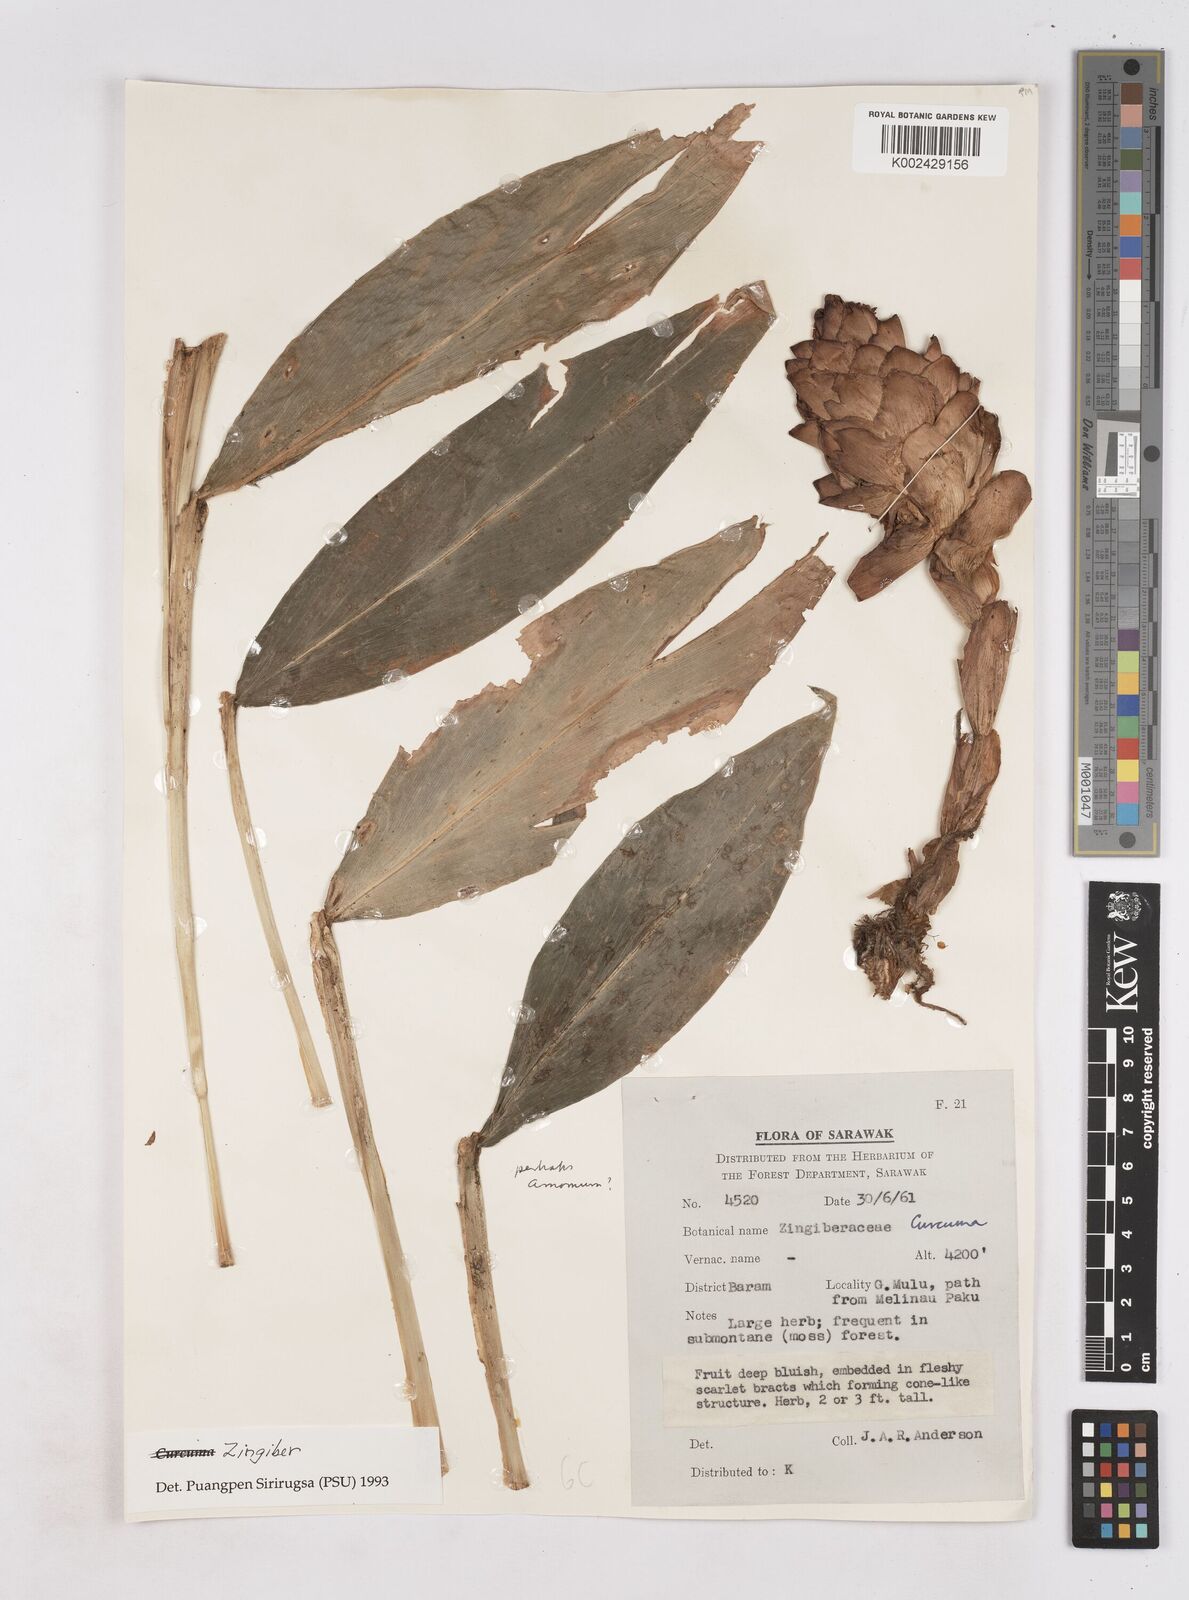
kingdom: Plantae
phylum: Tracheophyta
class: Liliopsida
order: Zingiberales
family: Zingiberaceae
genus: Zingiber
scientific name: Zingiber
